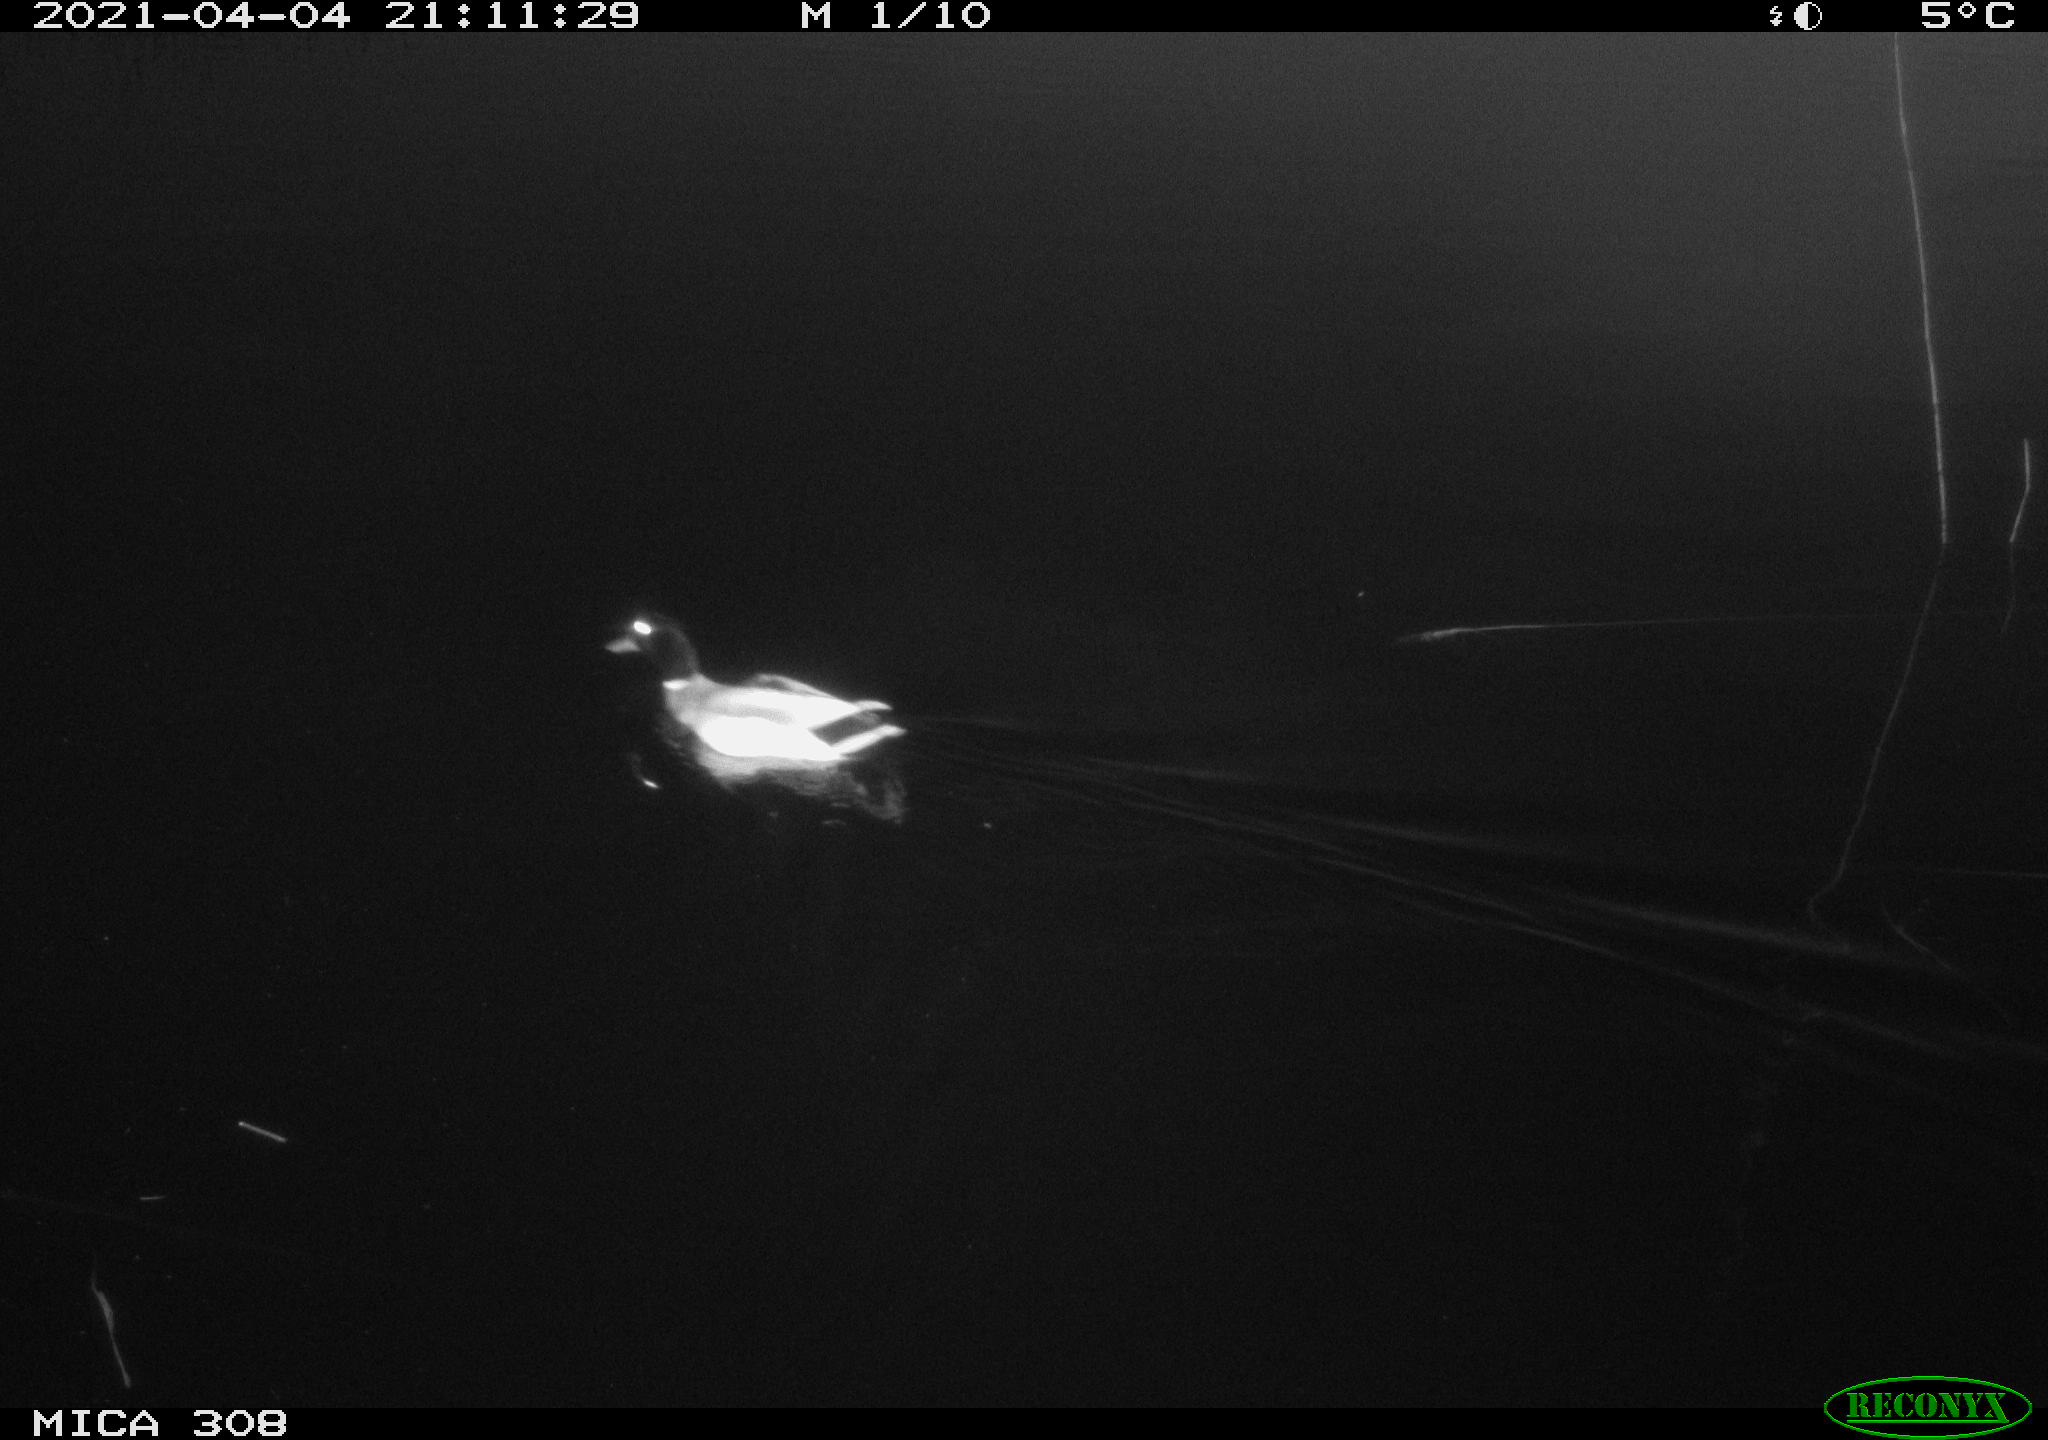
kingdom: Animalia
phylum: Chordata
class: Aves
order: Anseriformes
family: Anatidae
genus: Anas
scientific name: Anas platyrhynchos
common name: Mallard
